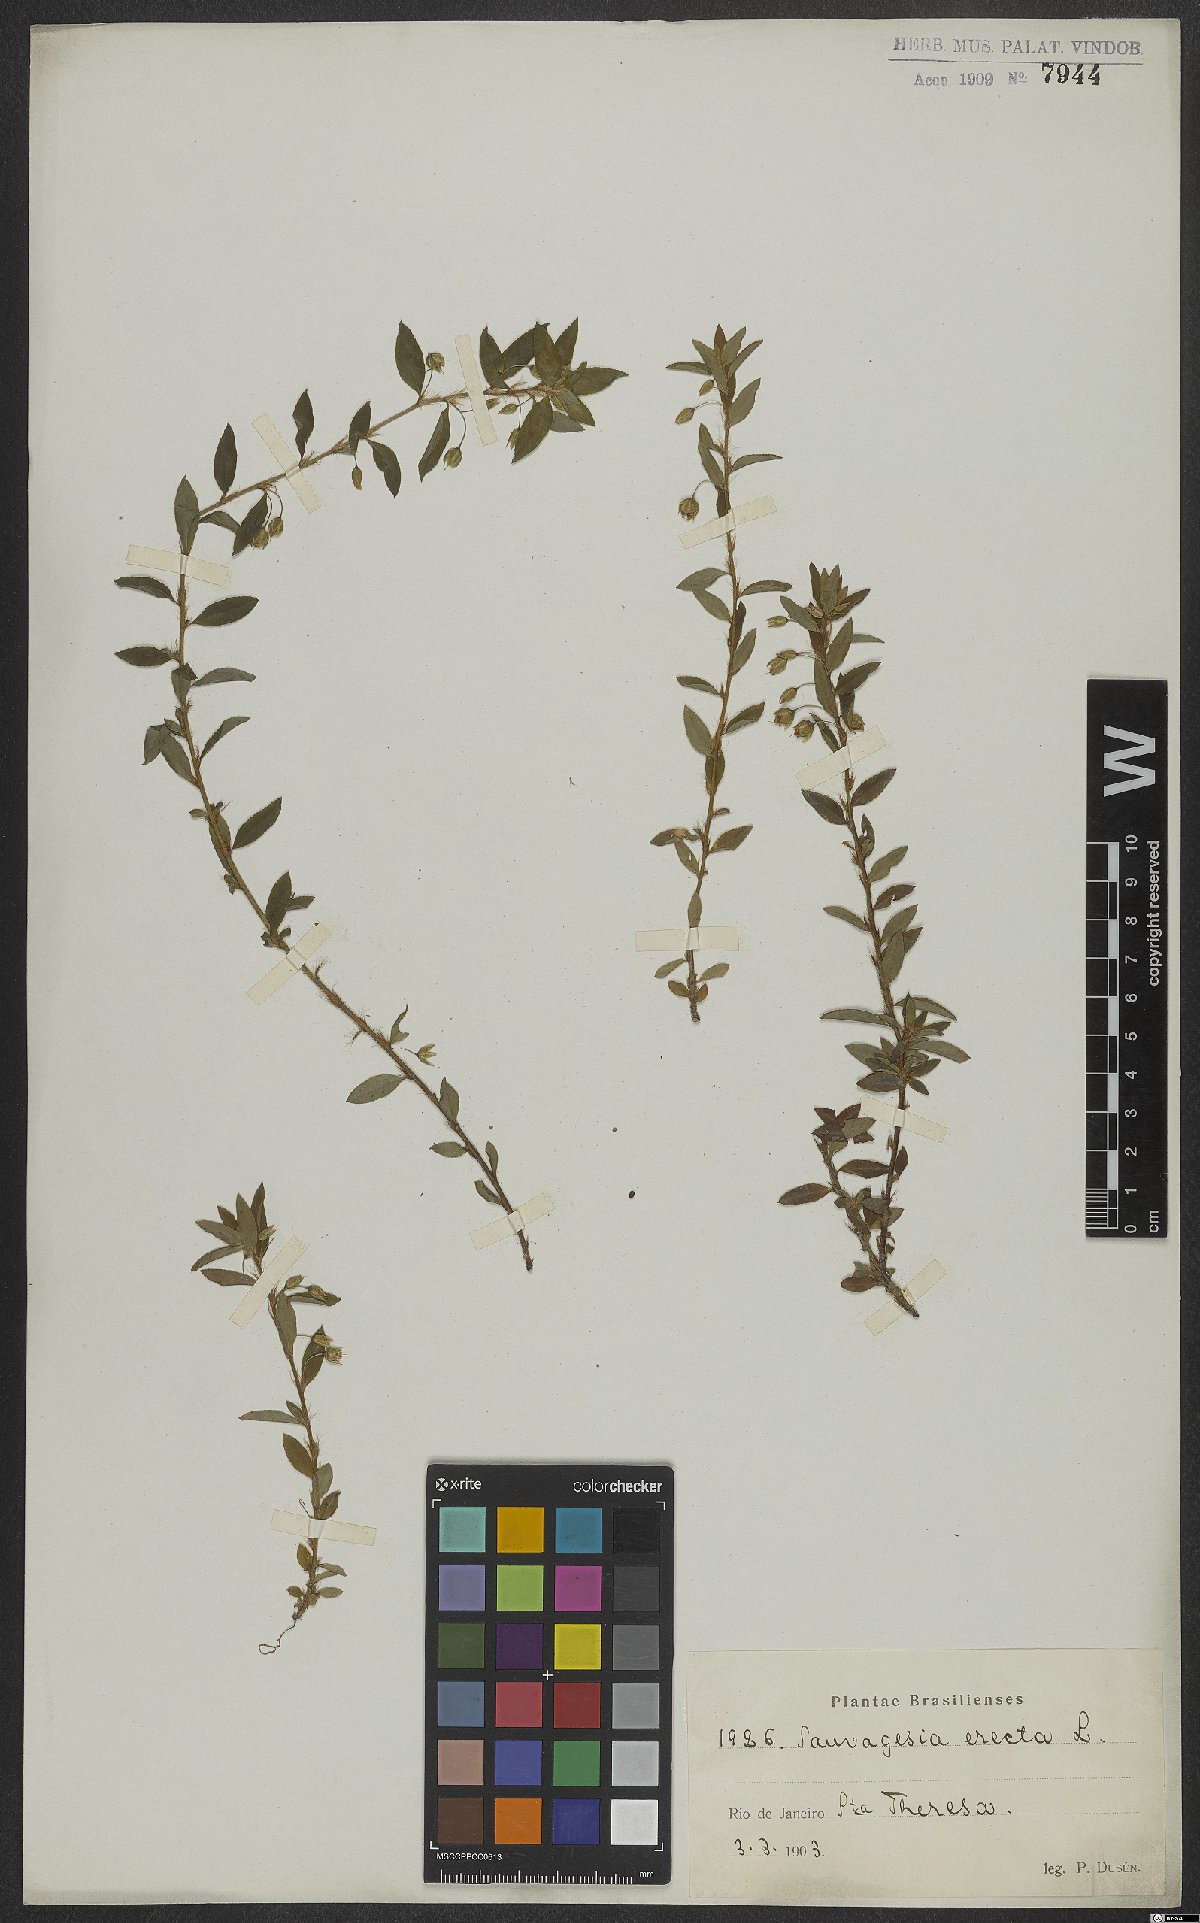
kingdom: Plantae
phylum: Tracheophyta
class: Magnoliopsida
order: Malpighiales
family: Ochnaceae
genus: Sauvagesia
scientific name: Sauvagesia erecta
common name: Creole tea
